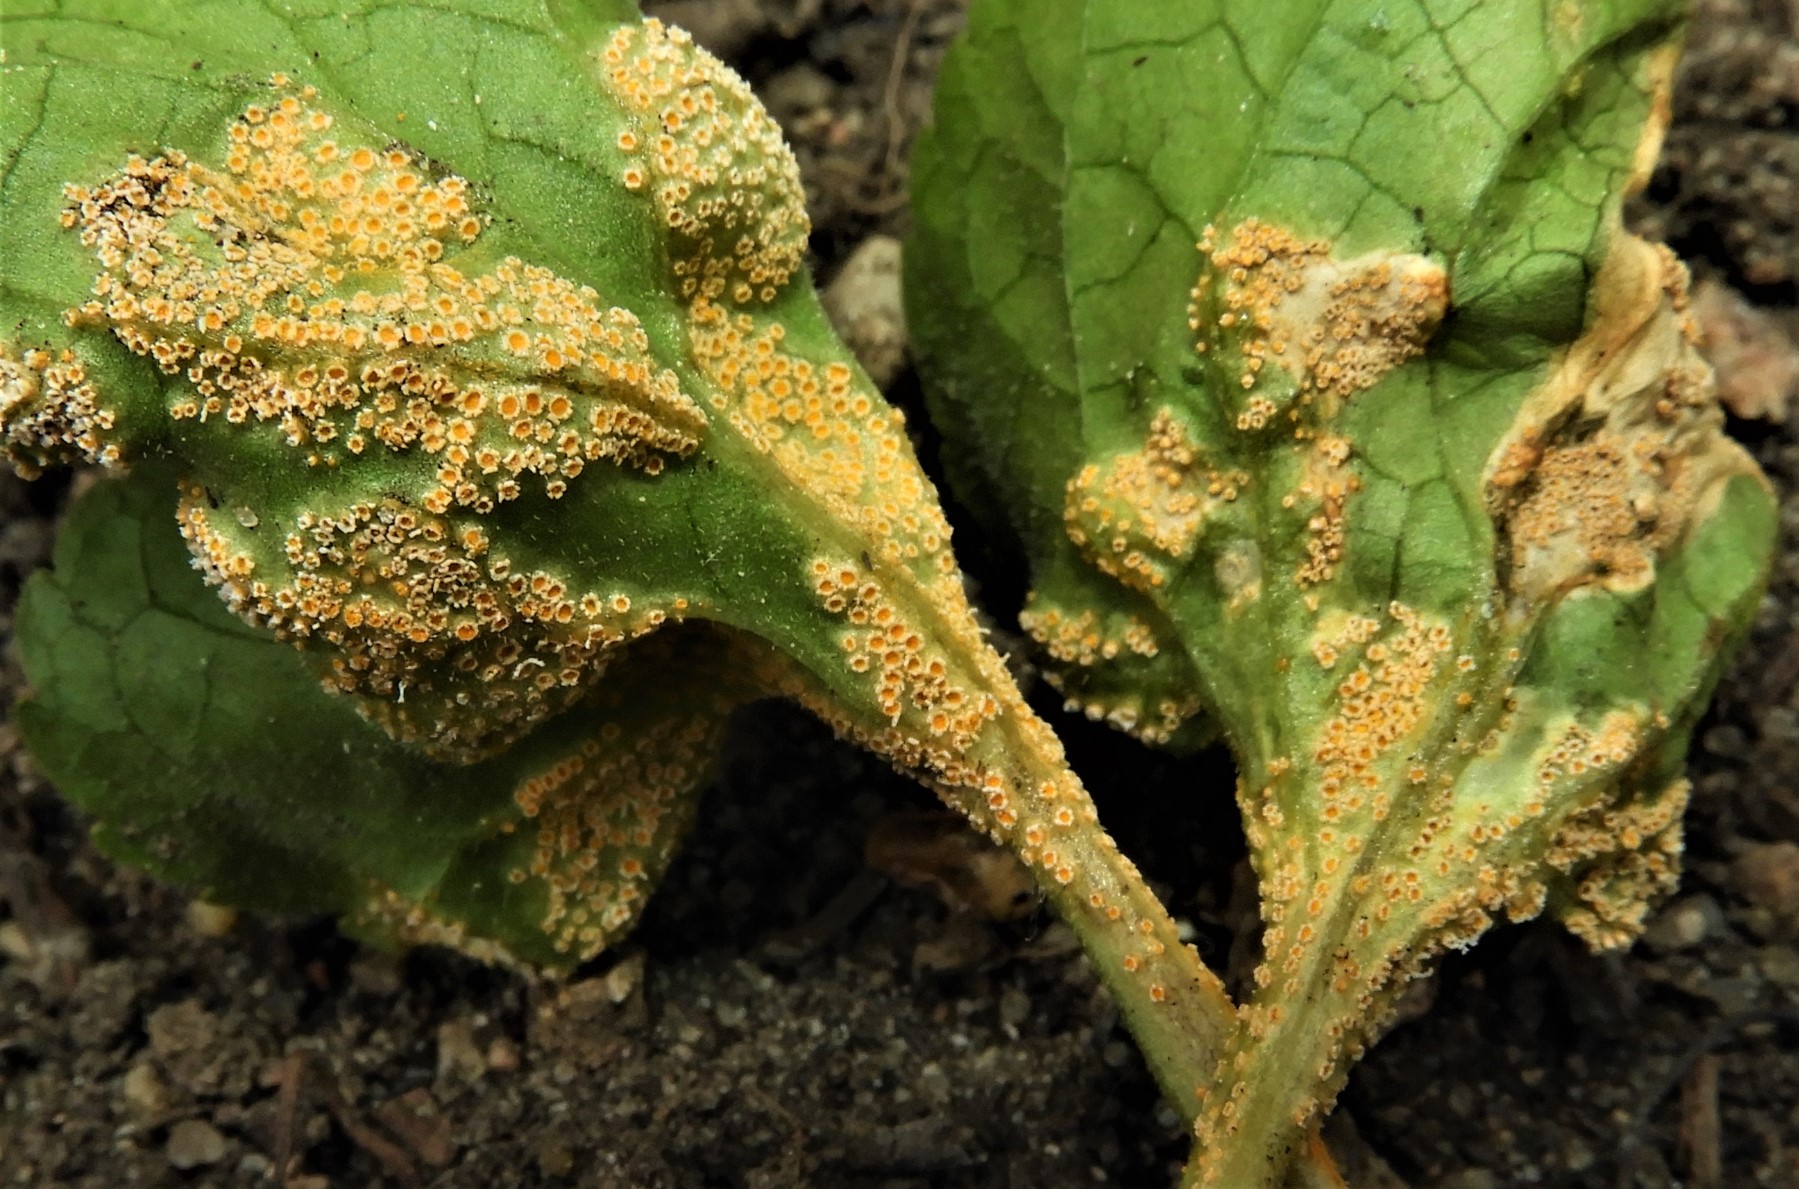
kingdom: Fungi
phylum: Basidiomycota
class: Pucciniomycetes
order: Pucciniales
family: Pucciniaceae
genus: Puccinia
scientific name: Puccinia violae
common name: viol-tvecellerust
